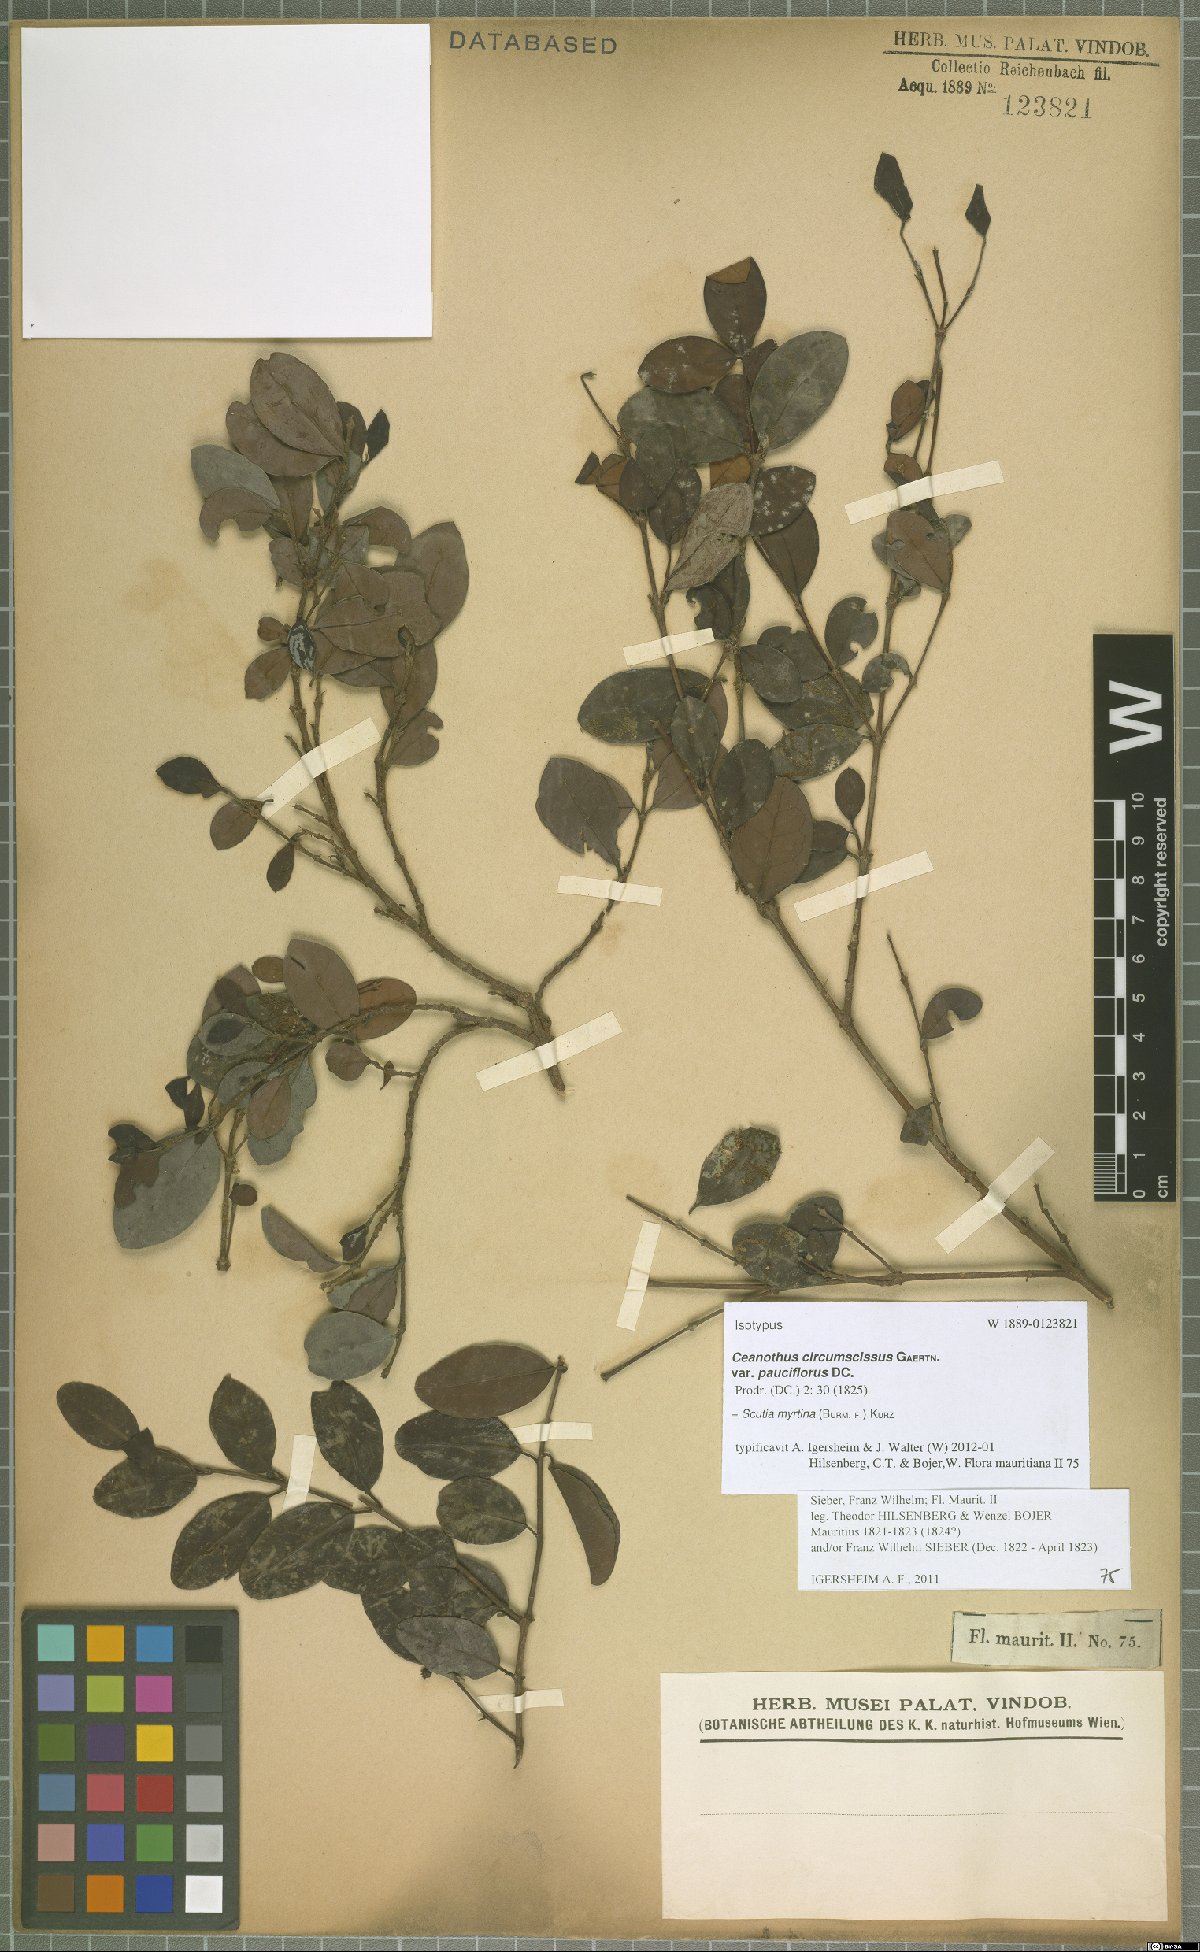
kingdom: Plantae
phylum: Tracheophyta
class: Magnoliopsida
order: Rosales
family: Rhamnaceae
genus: Scutia
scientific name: Scutia myrtina
